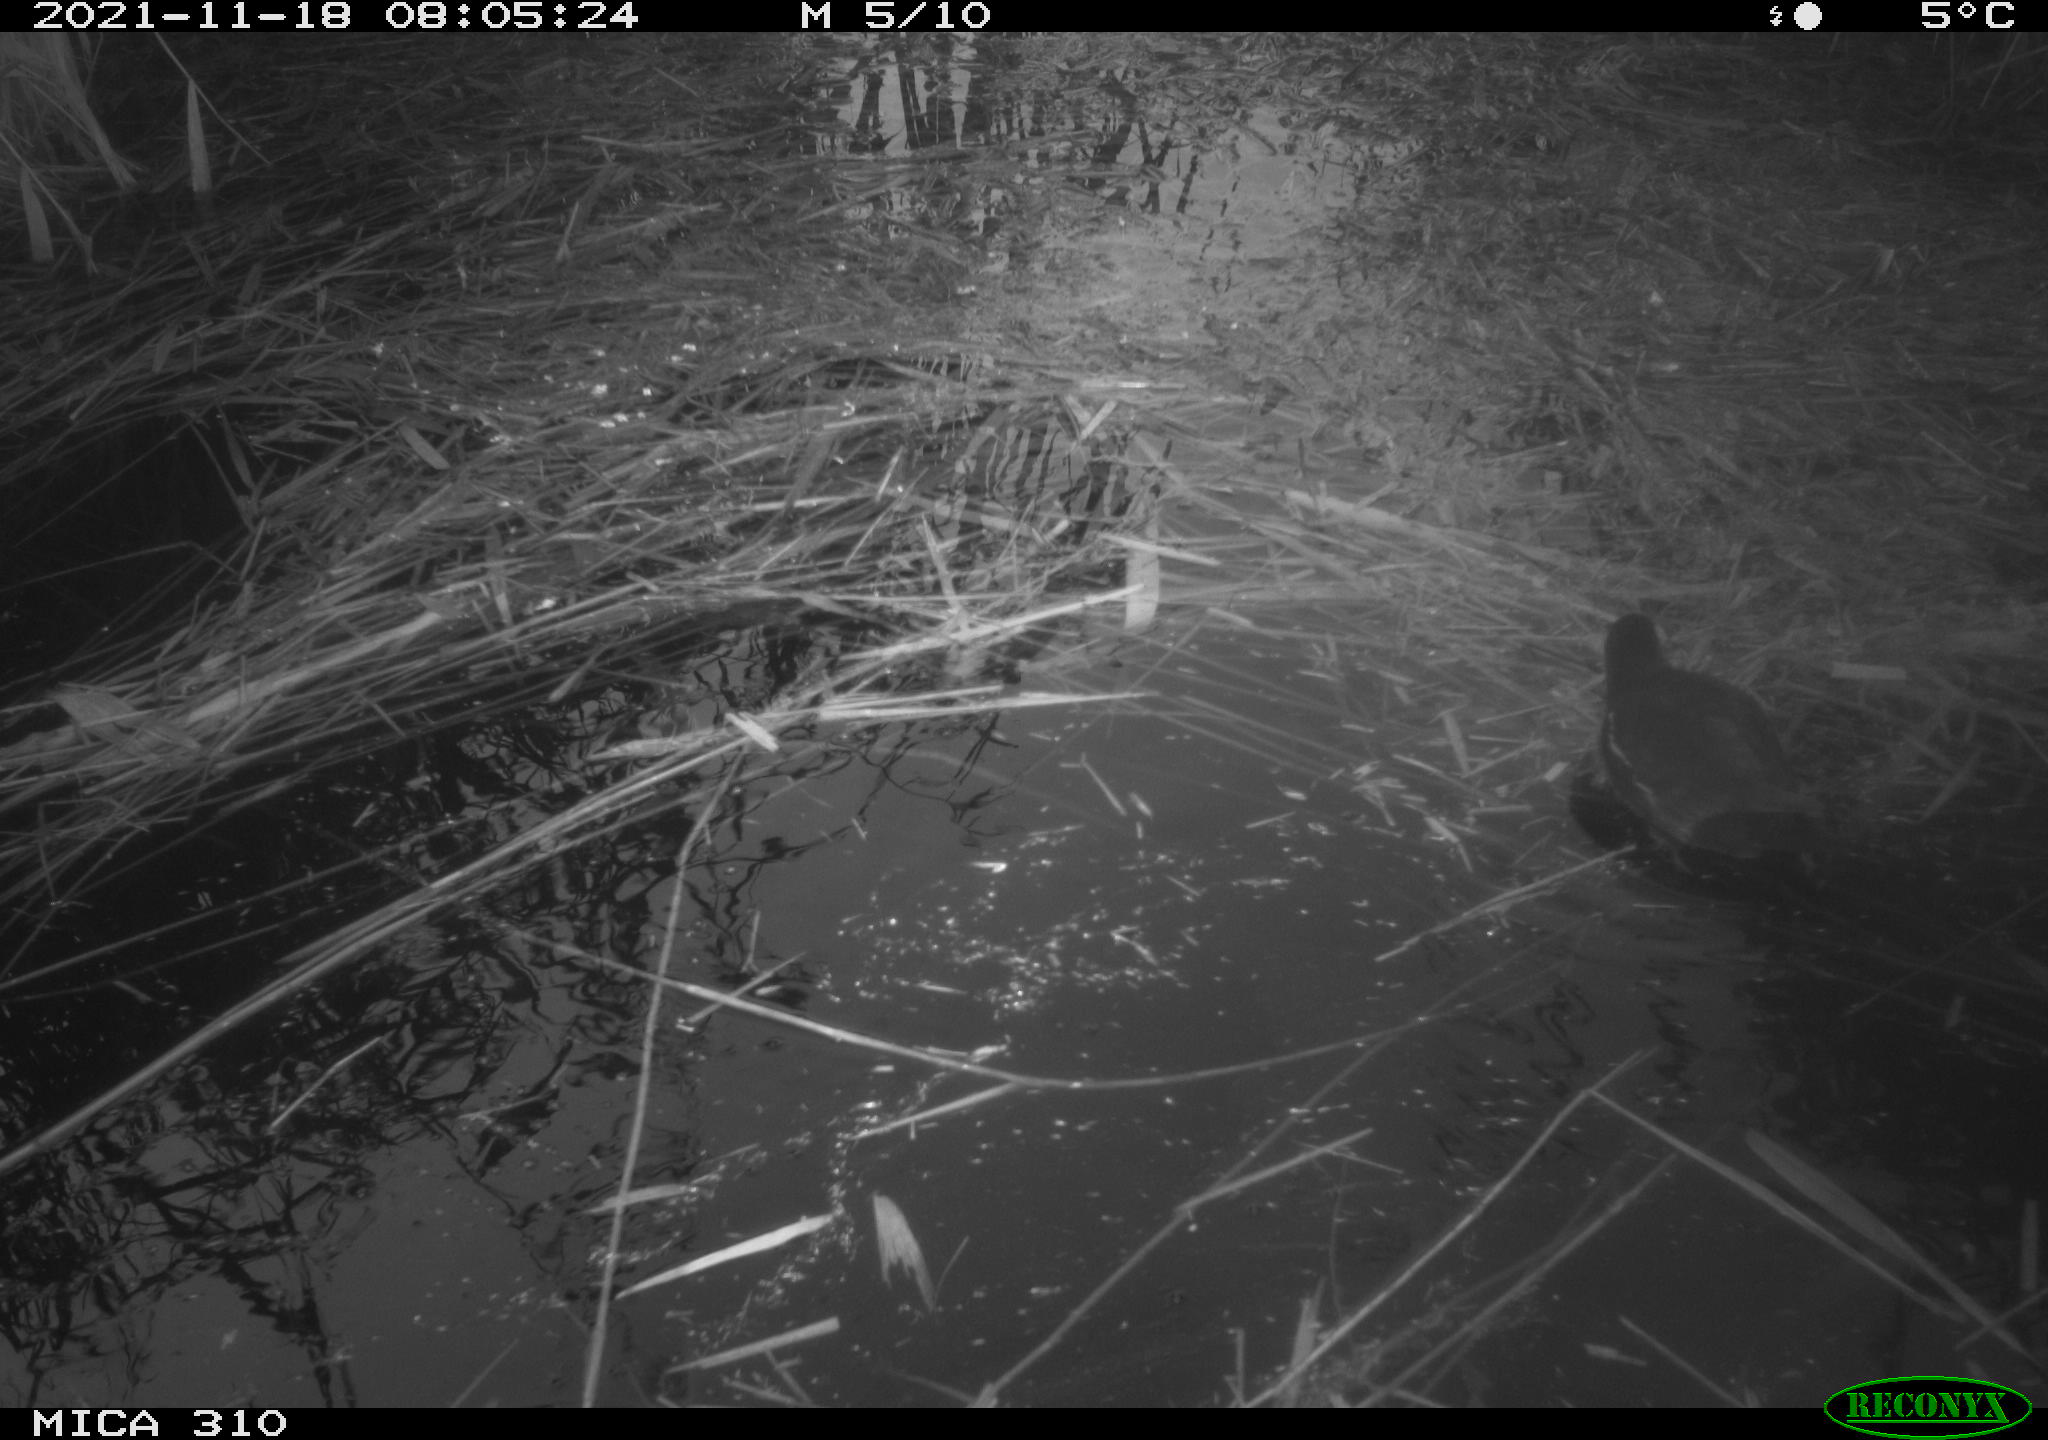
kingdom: Animalia
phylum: Chordata
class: Aves
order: Gruiformes
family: Rallidae
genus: Gallinula
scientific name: Gallinula chloropus
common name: Common moorhen
